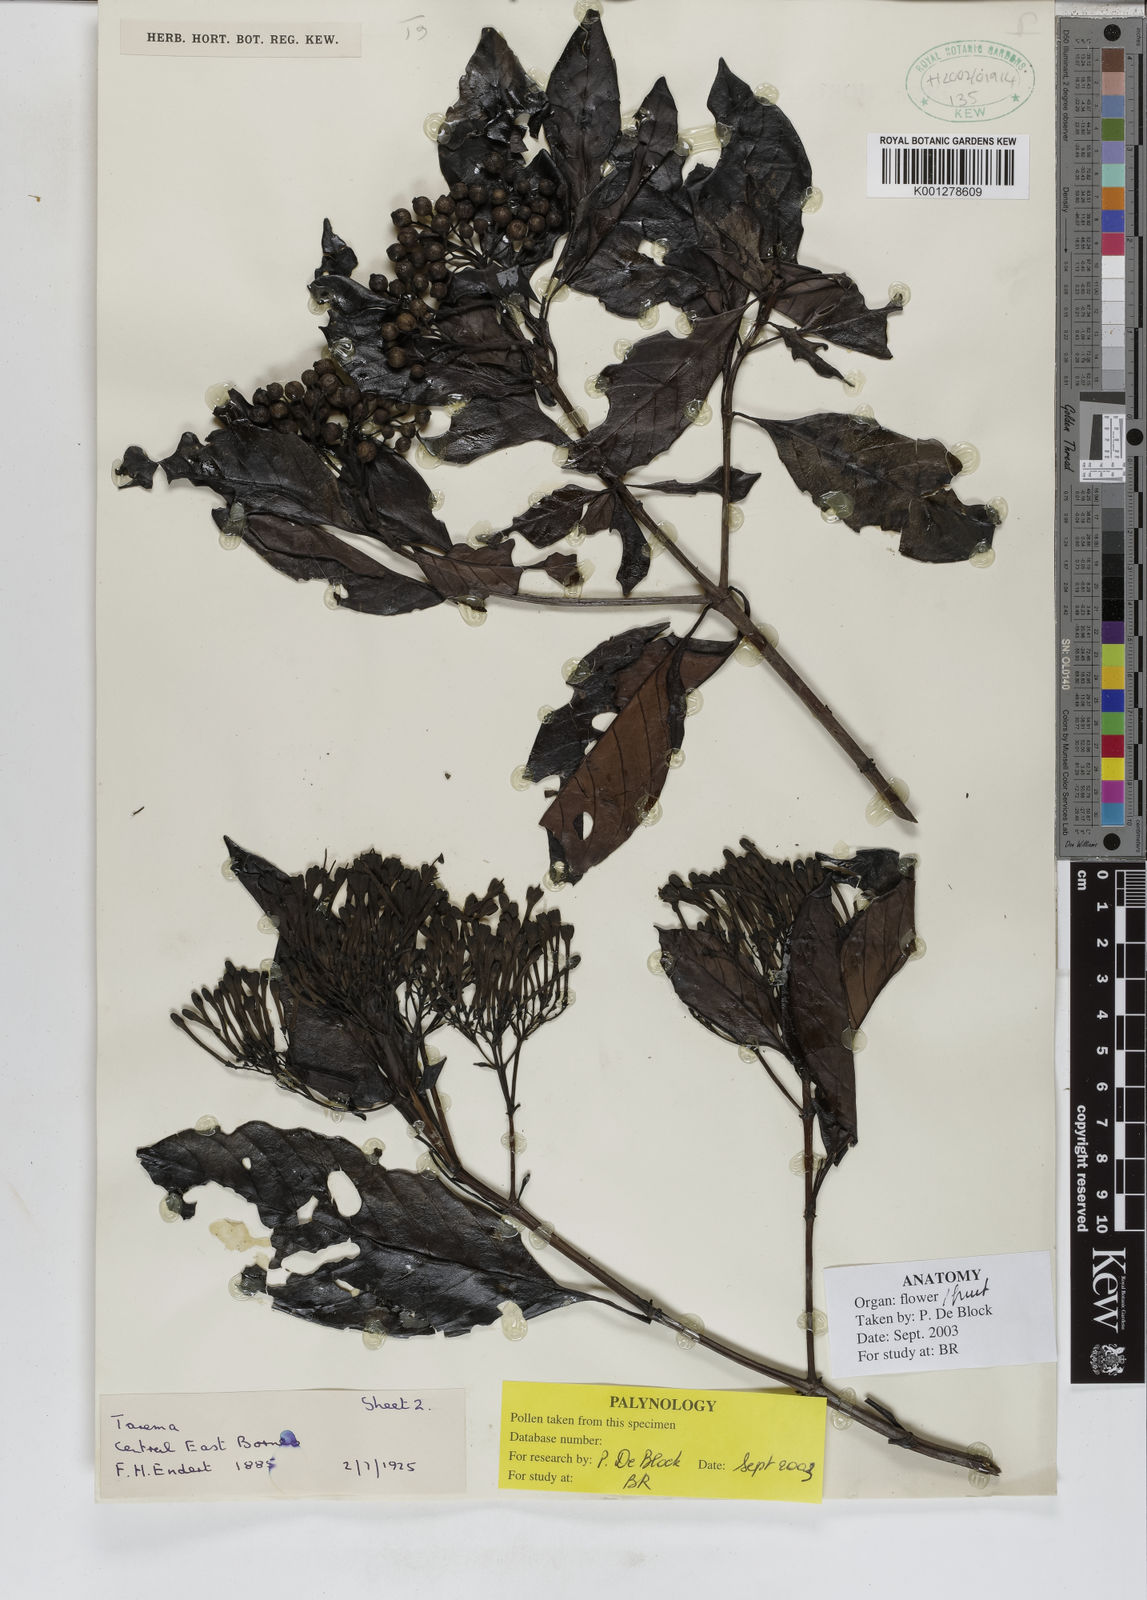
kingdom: Plantae
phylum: Tracheophyta
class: Magnoliopsida
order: Gentianales
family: Rubiaceae
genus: Tarenna
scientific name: Tarenna
